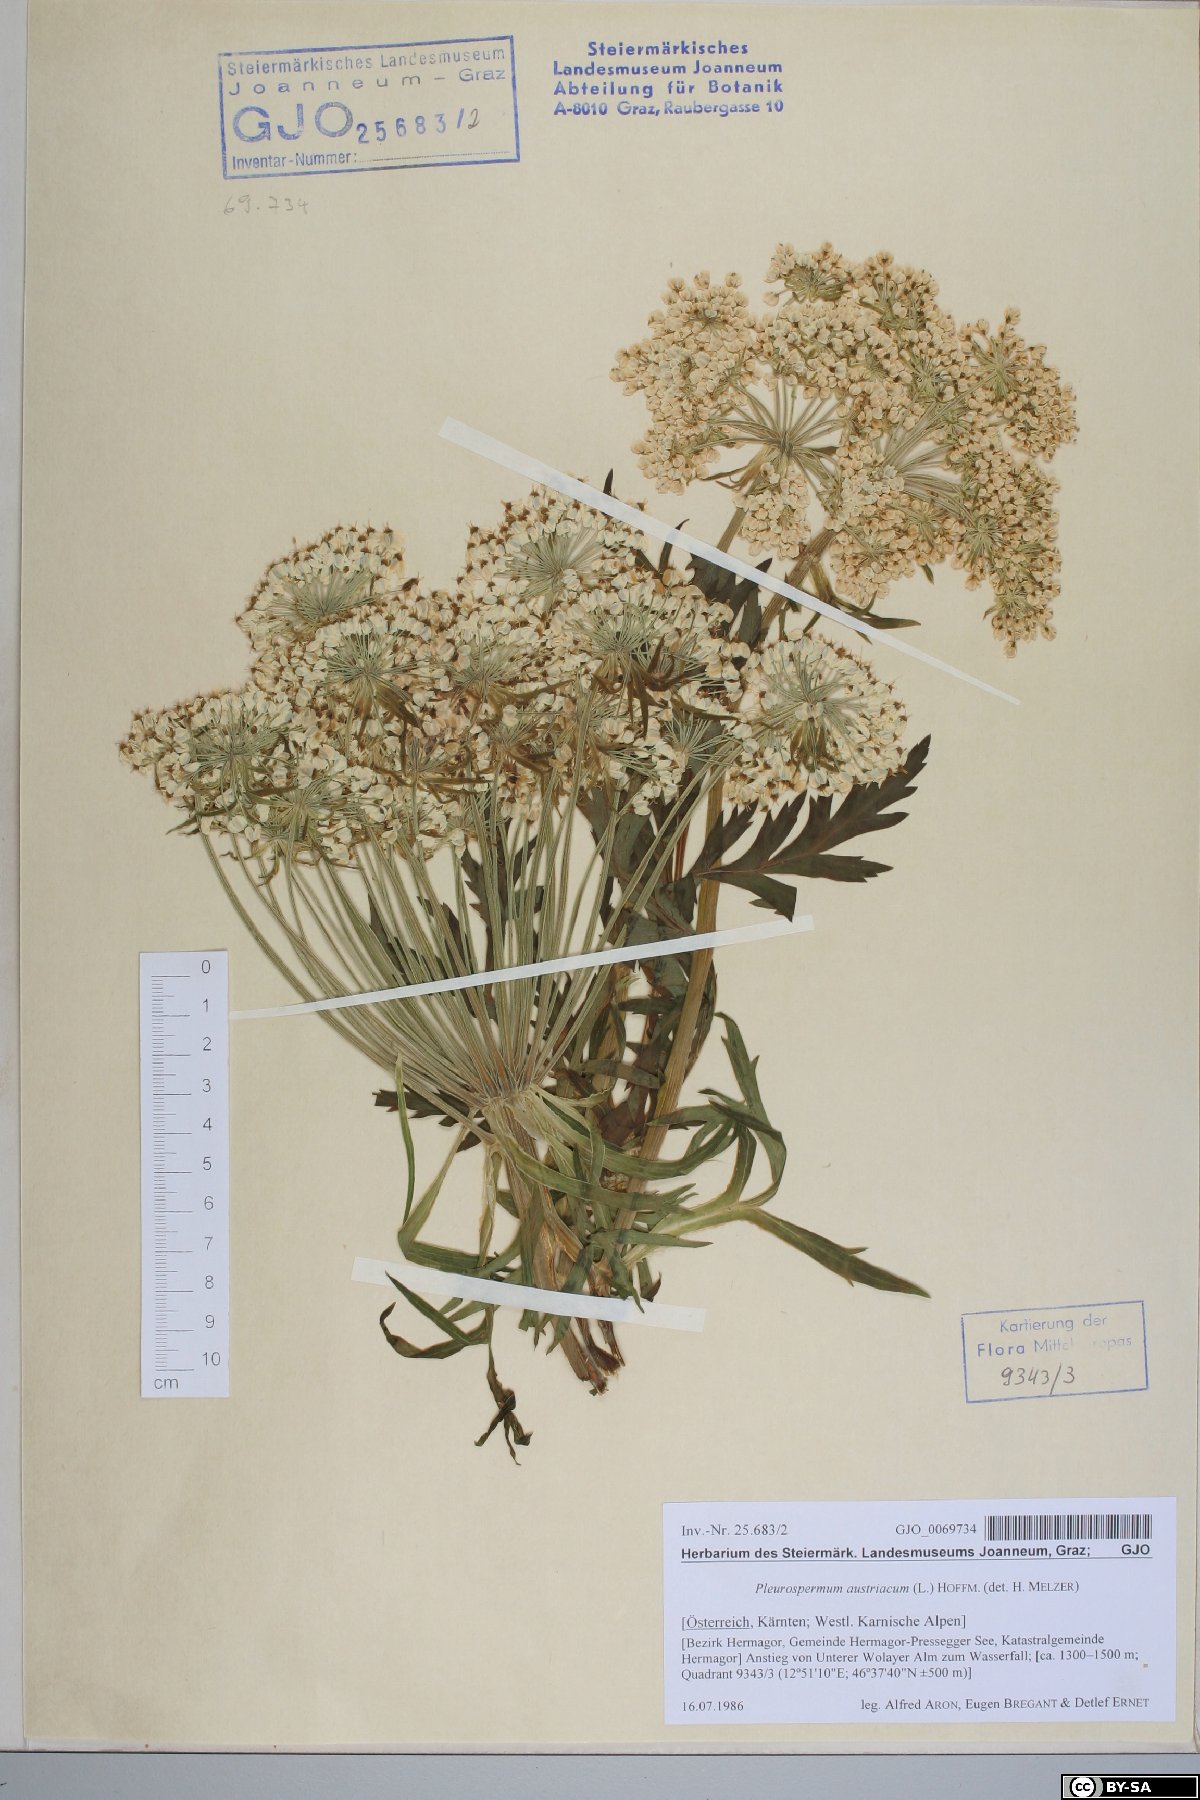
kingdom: Plantae
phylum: Tracheophyta
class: Magnoliopsida
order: Apiales
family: Apiaceae
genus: Pleurospermum
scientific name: Pleurospermum austriacum
